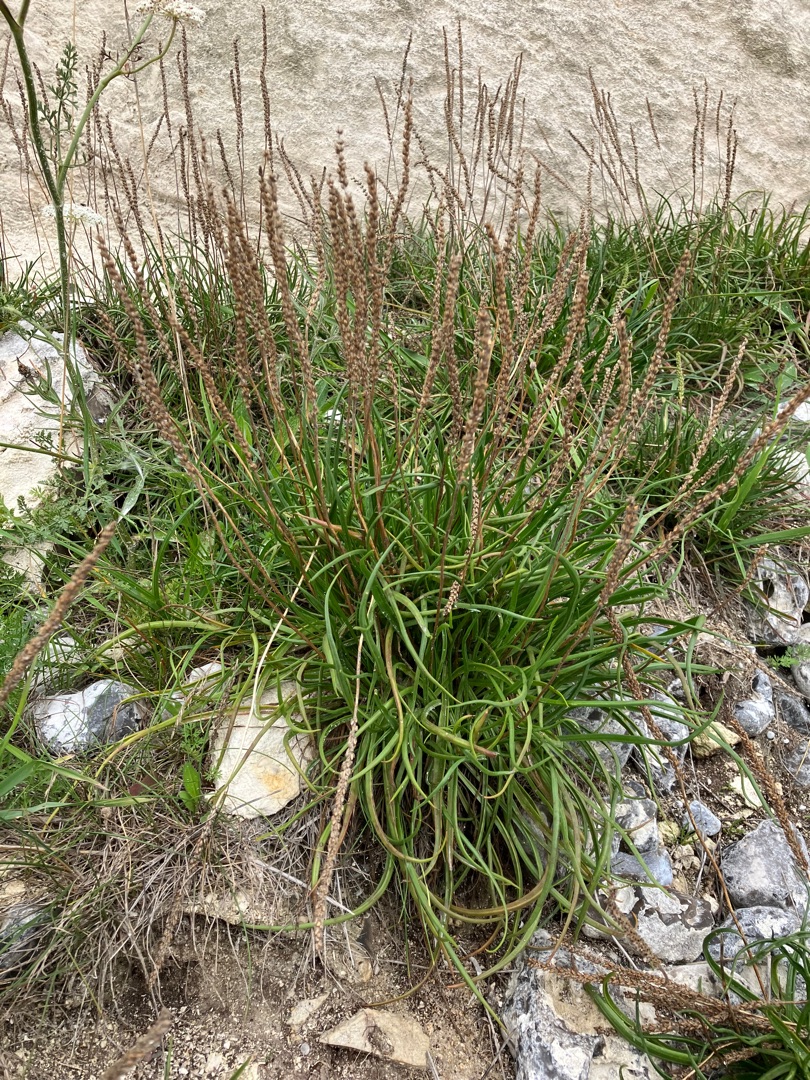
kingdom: Plantae
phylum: Tracheophyta
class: Magnoliopsida
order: Lamiales
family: Plantaginaceae
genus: Plantago
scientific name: Plantago maritima
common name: Strand-vejbred
